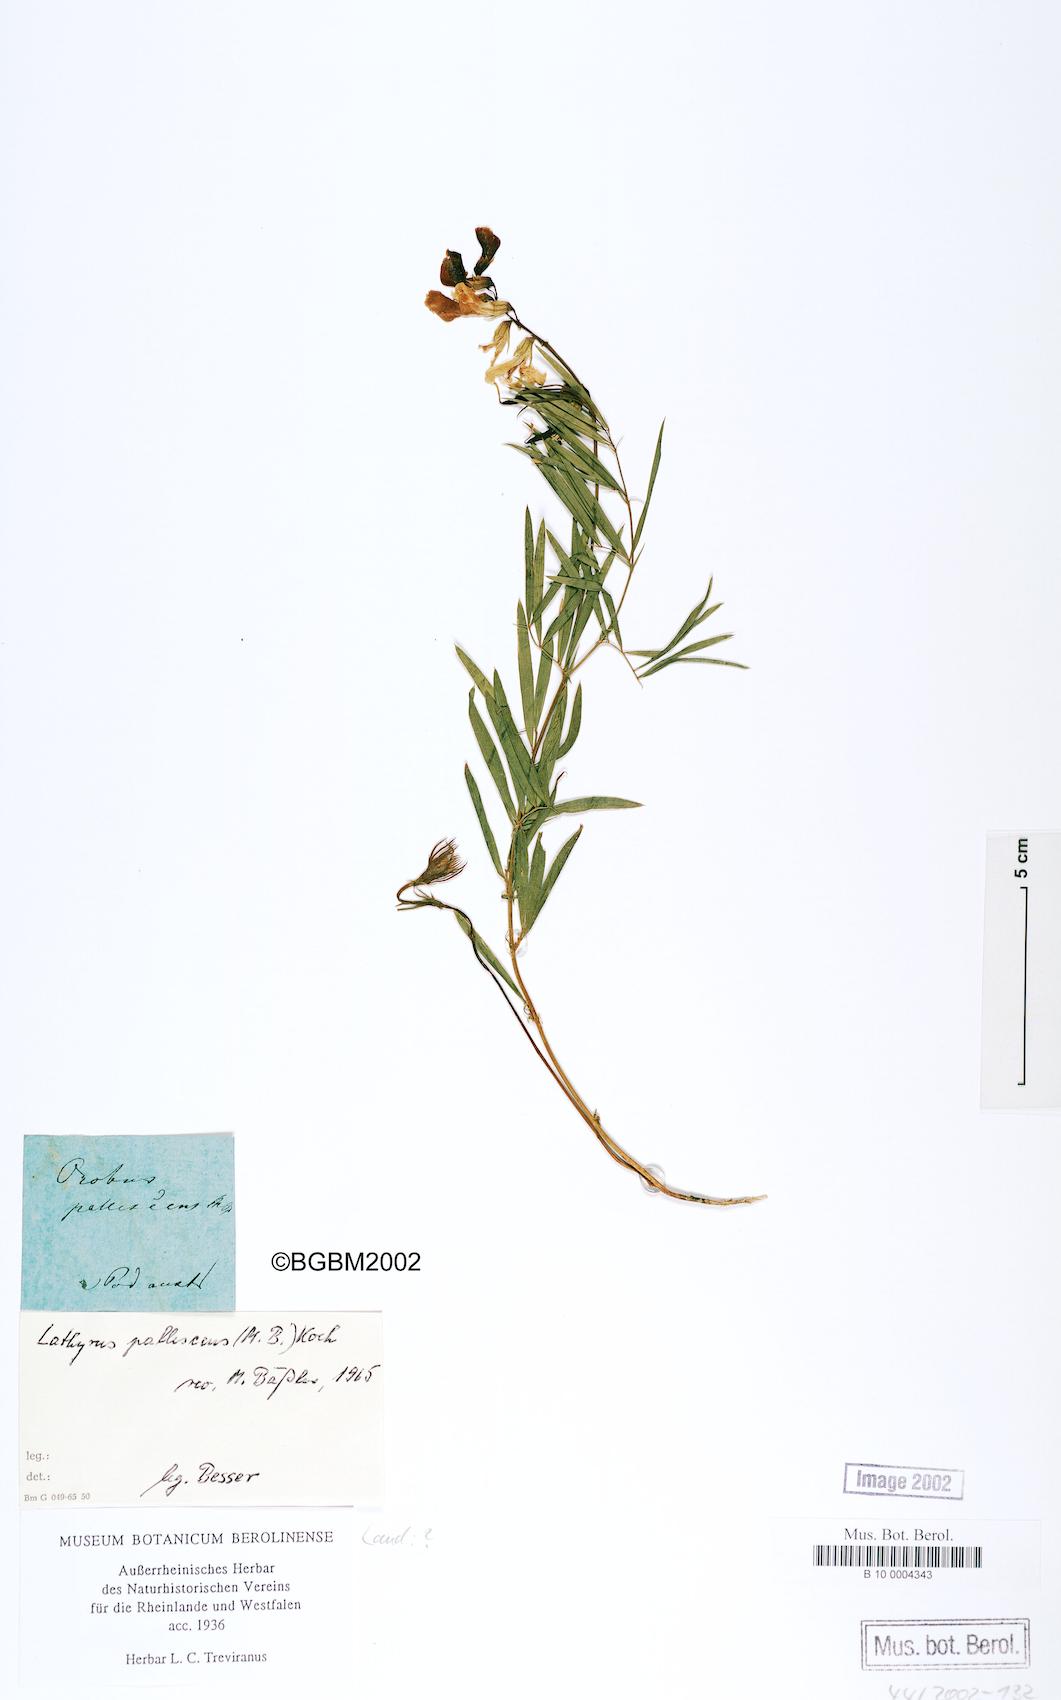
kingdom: Plantae
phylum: Tracheophyta
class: Magnoliopsida
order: Fabales
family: Fabaceae
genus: Lathyrus
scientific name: Lathyrus pallescens
